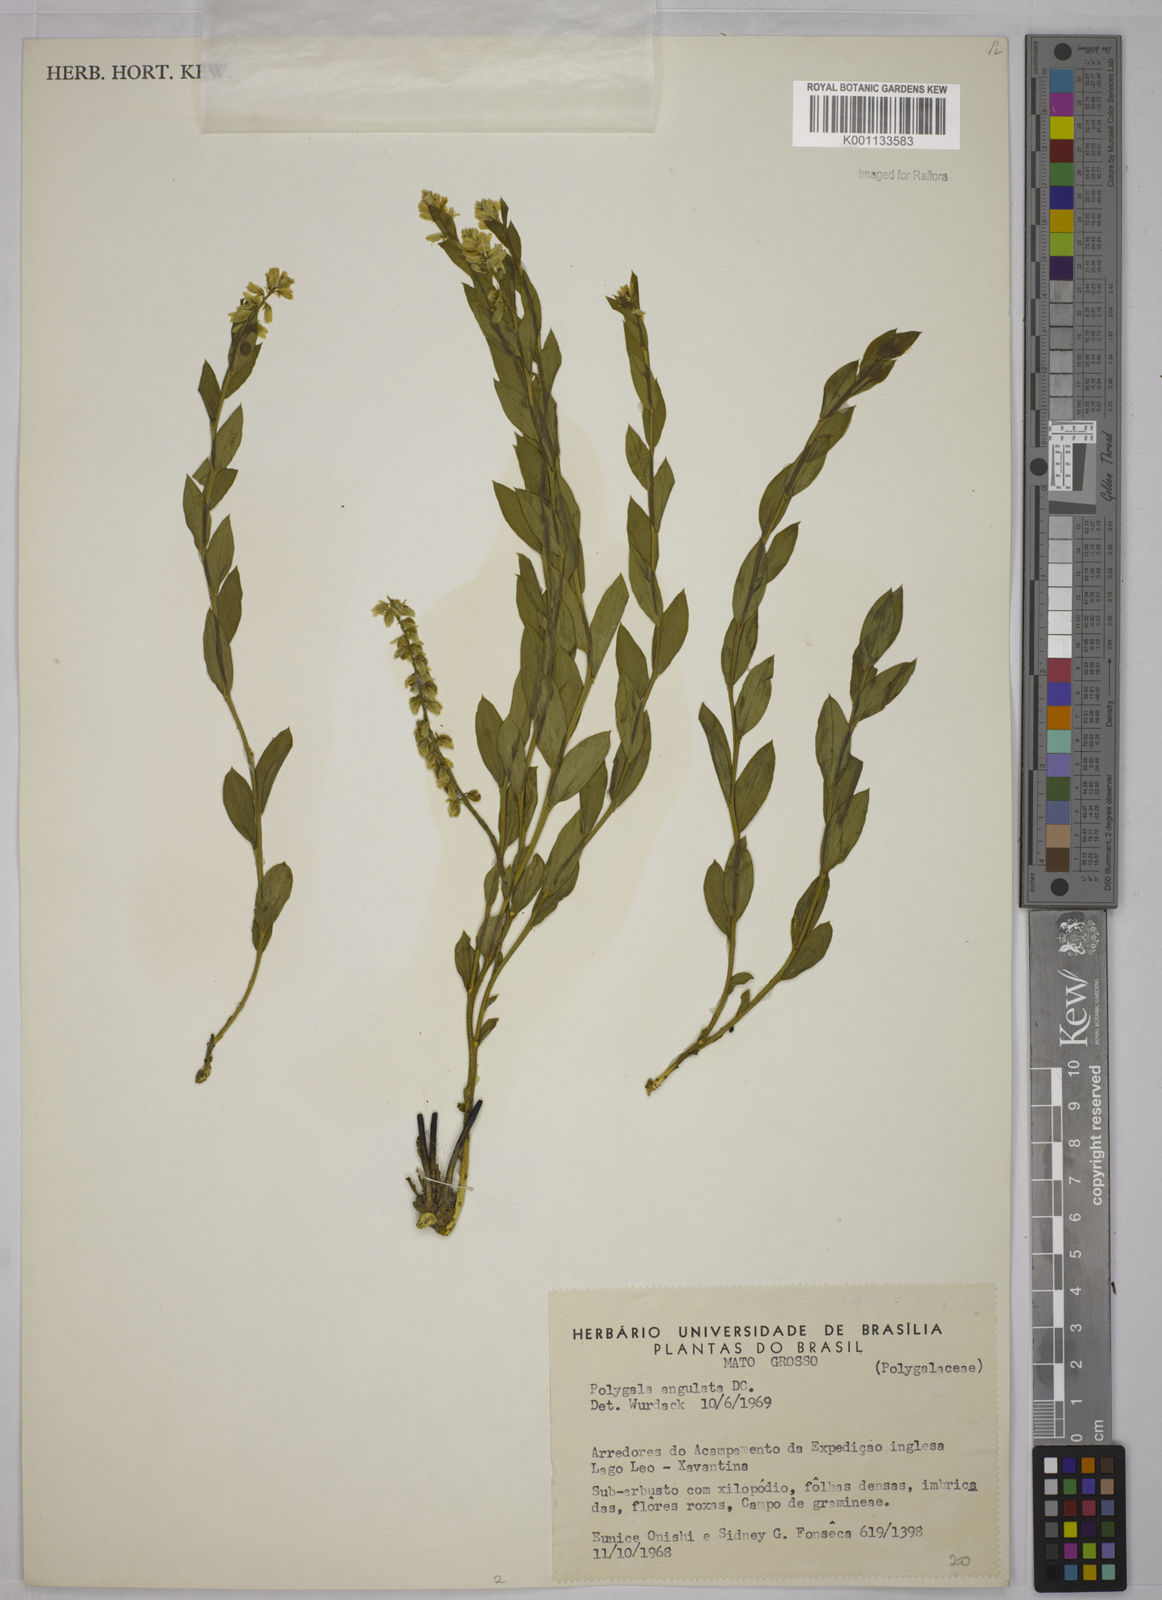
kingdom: Plantae
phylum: Tracheophyta
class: Magnoliopsida
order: Fabales
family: Polygalaceae
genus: Polygala
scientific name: Polygala poaya
